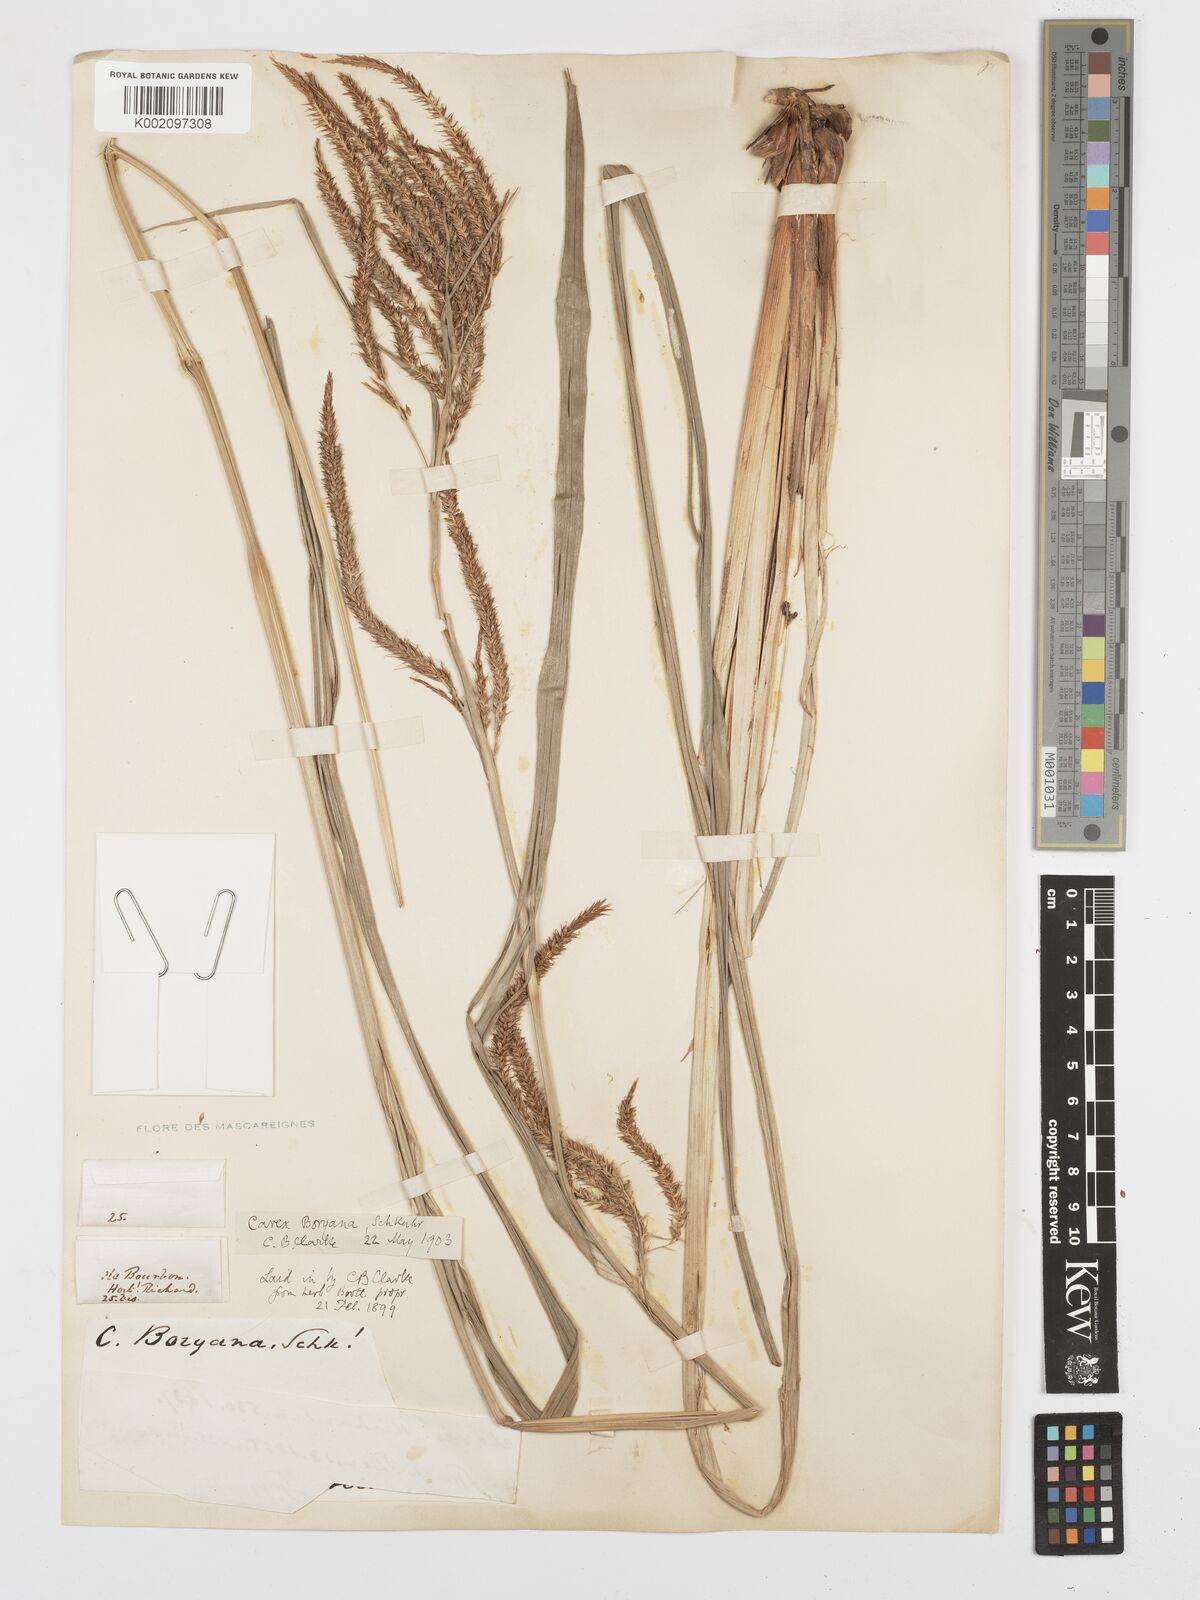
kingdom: Plantae
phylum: Tracheophyta
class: Liliopsida
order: Poales
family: Cyperaceae
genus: Carex
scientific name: Carex boryana
